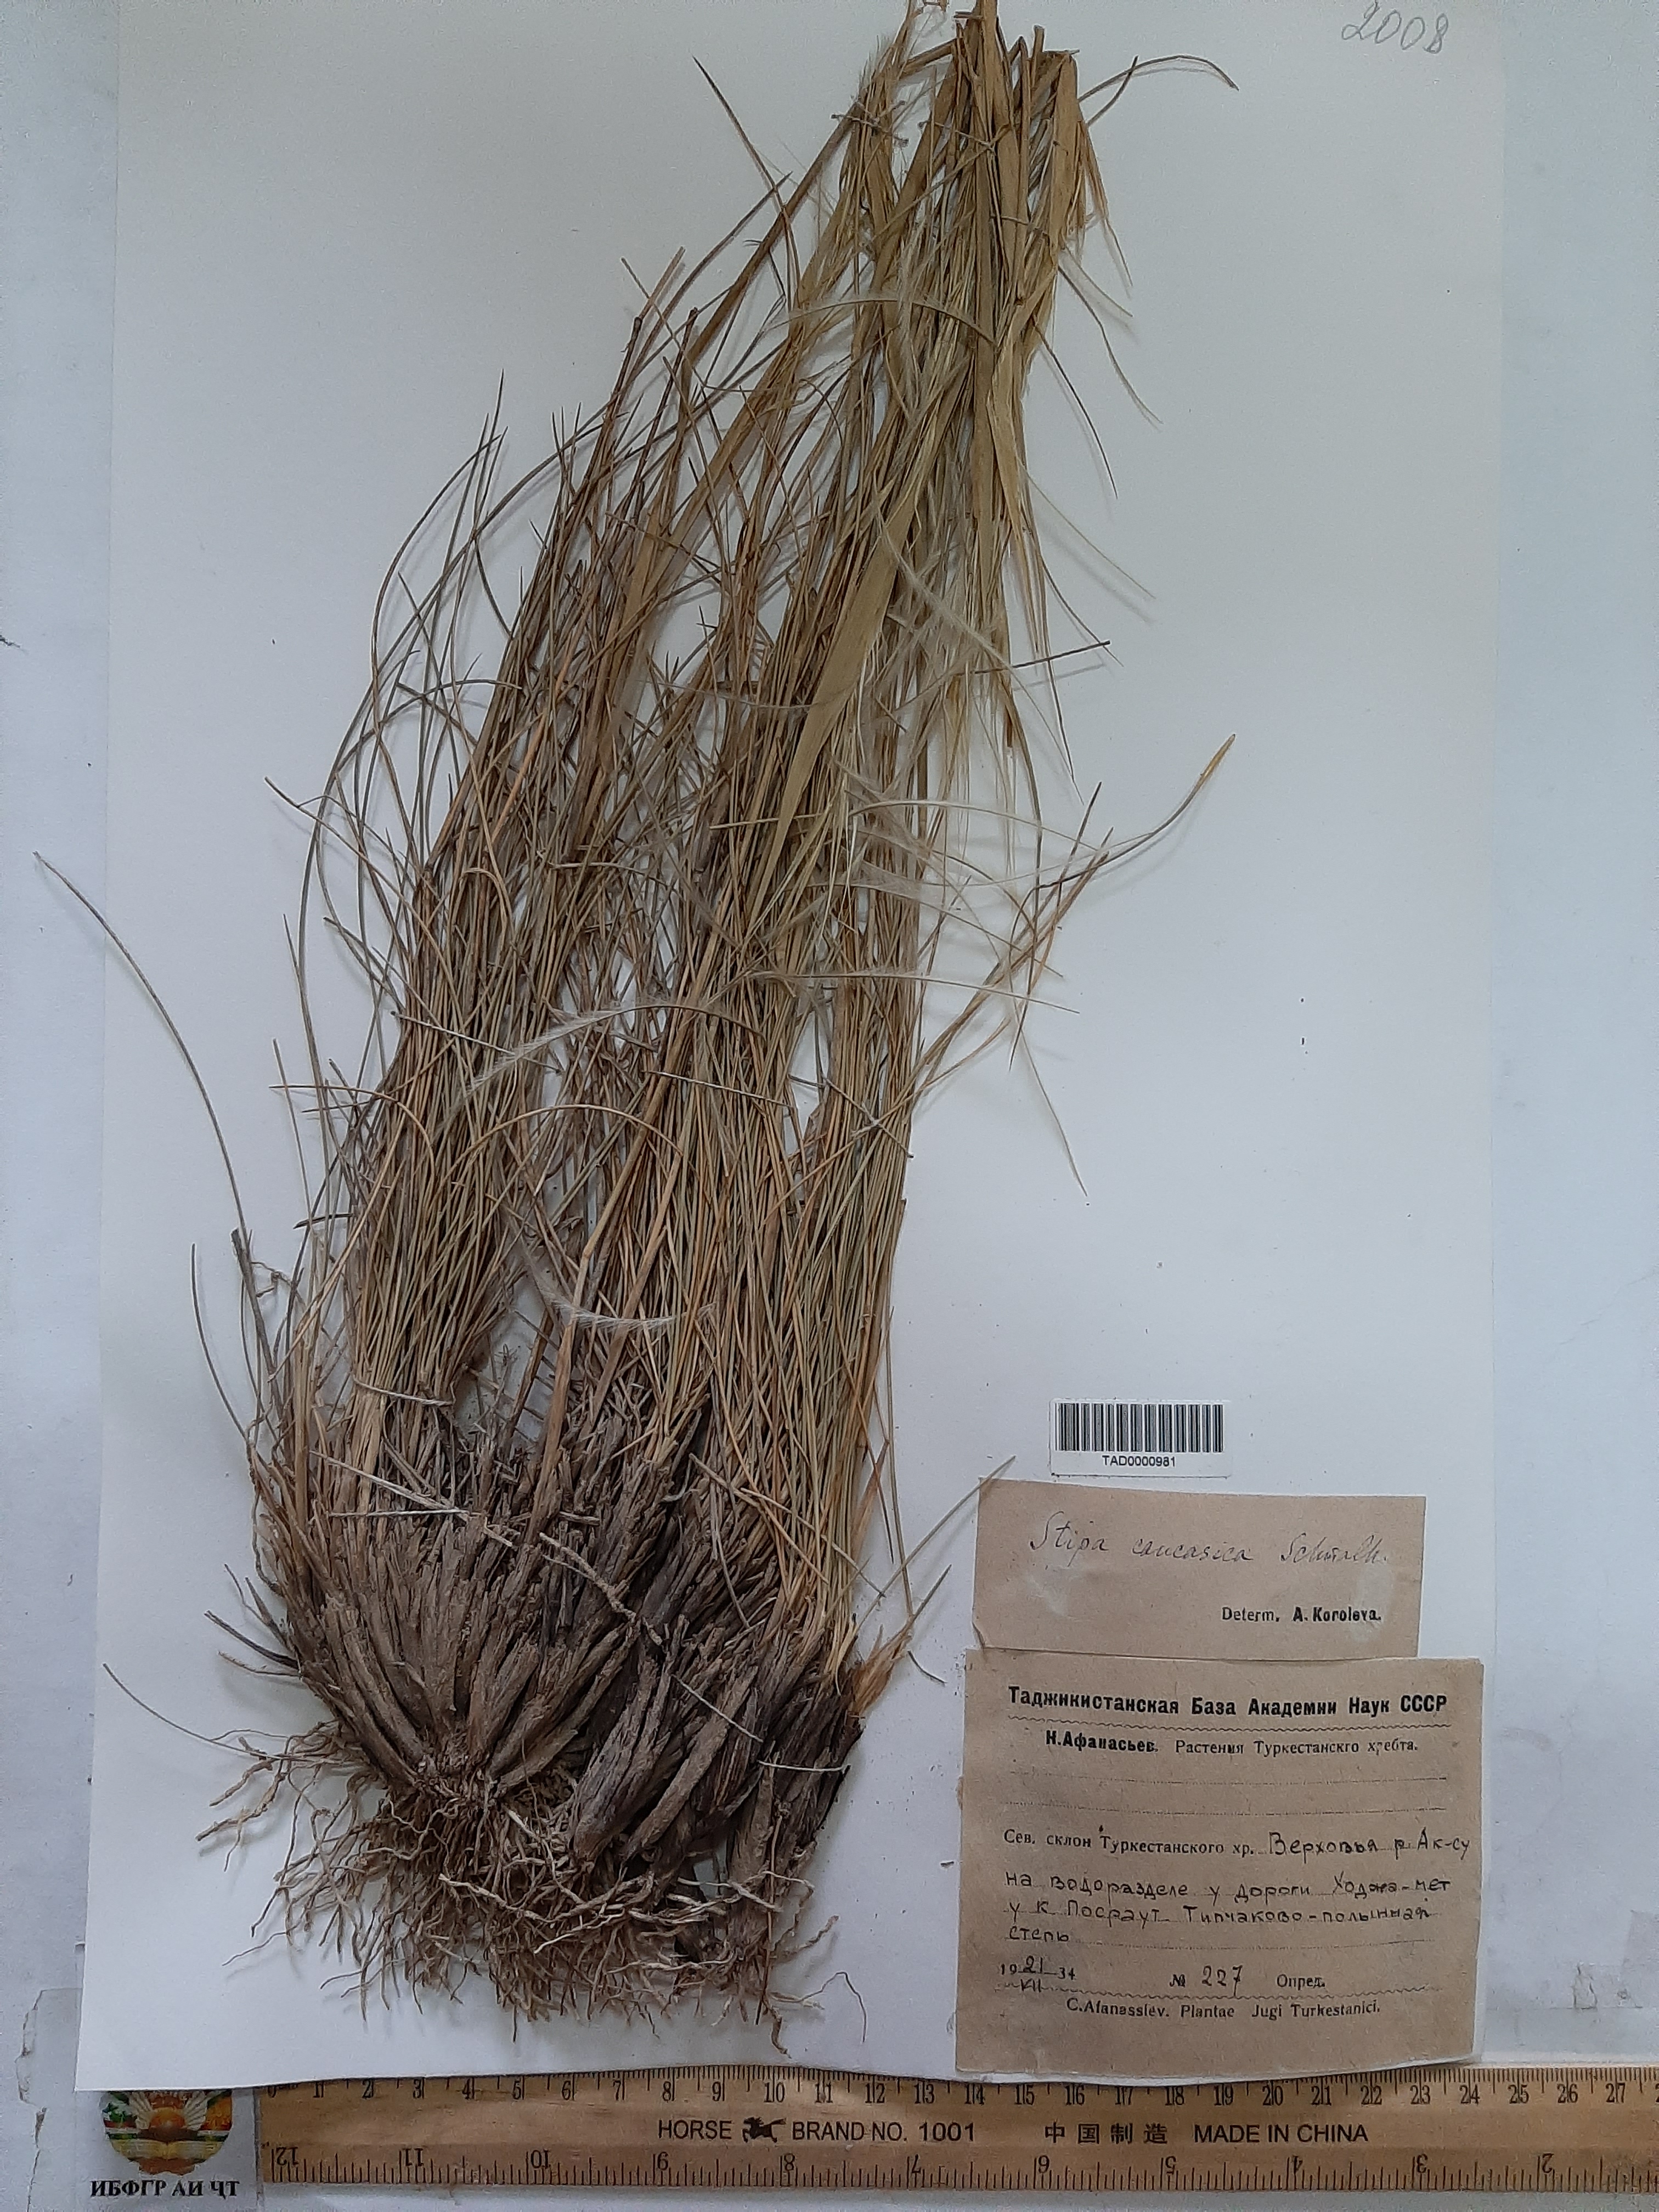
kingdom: Plantae
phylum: Tracheophyta
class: Liliopsida
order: Poales
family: Poaceae
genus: Stipa
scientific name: Stipa caucasica
